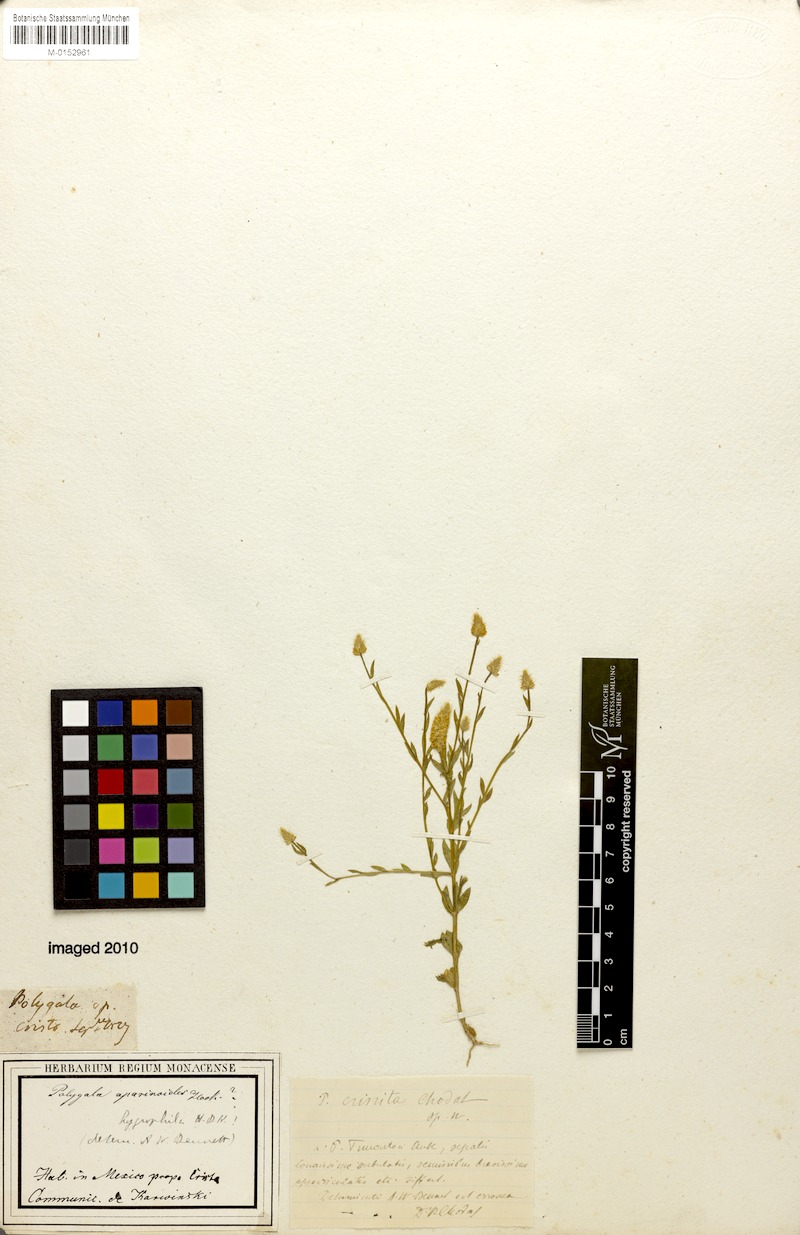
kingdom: Plantae
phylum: Tracheophyta
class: Magnoliopsida
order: Fabales
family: Polygalaceae
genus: Polygala
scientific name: Polygala crinita
